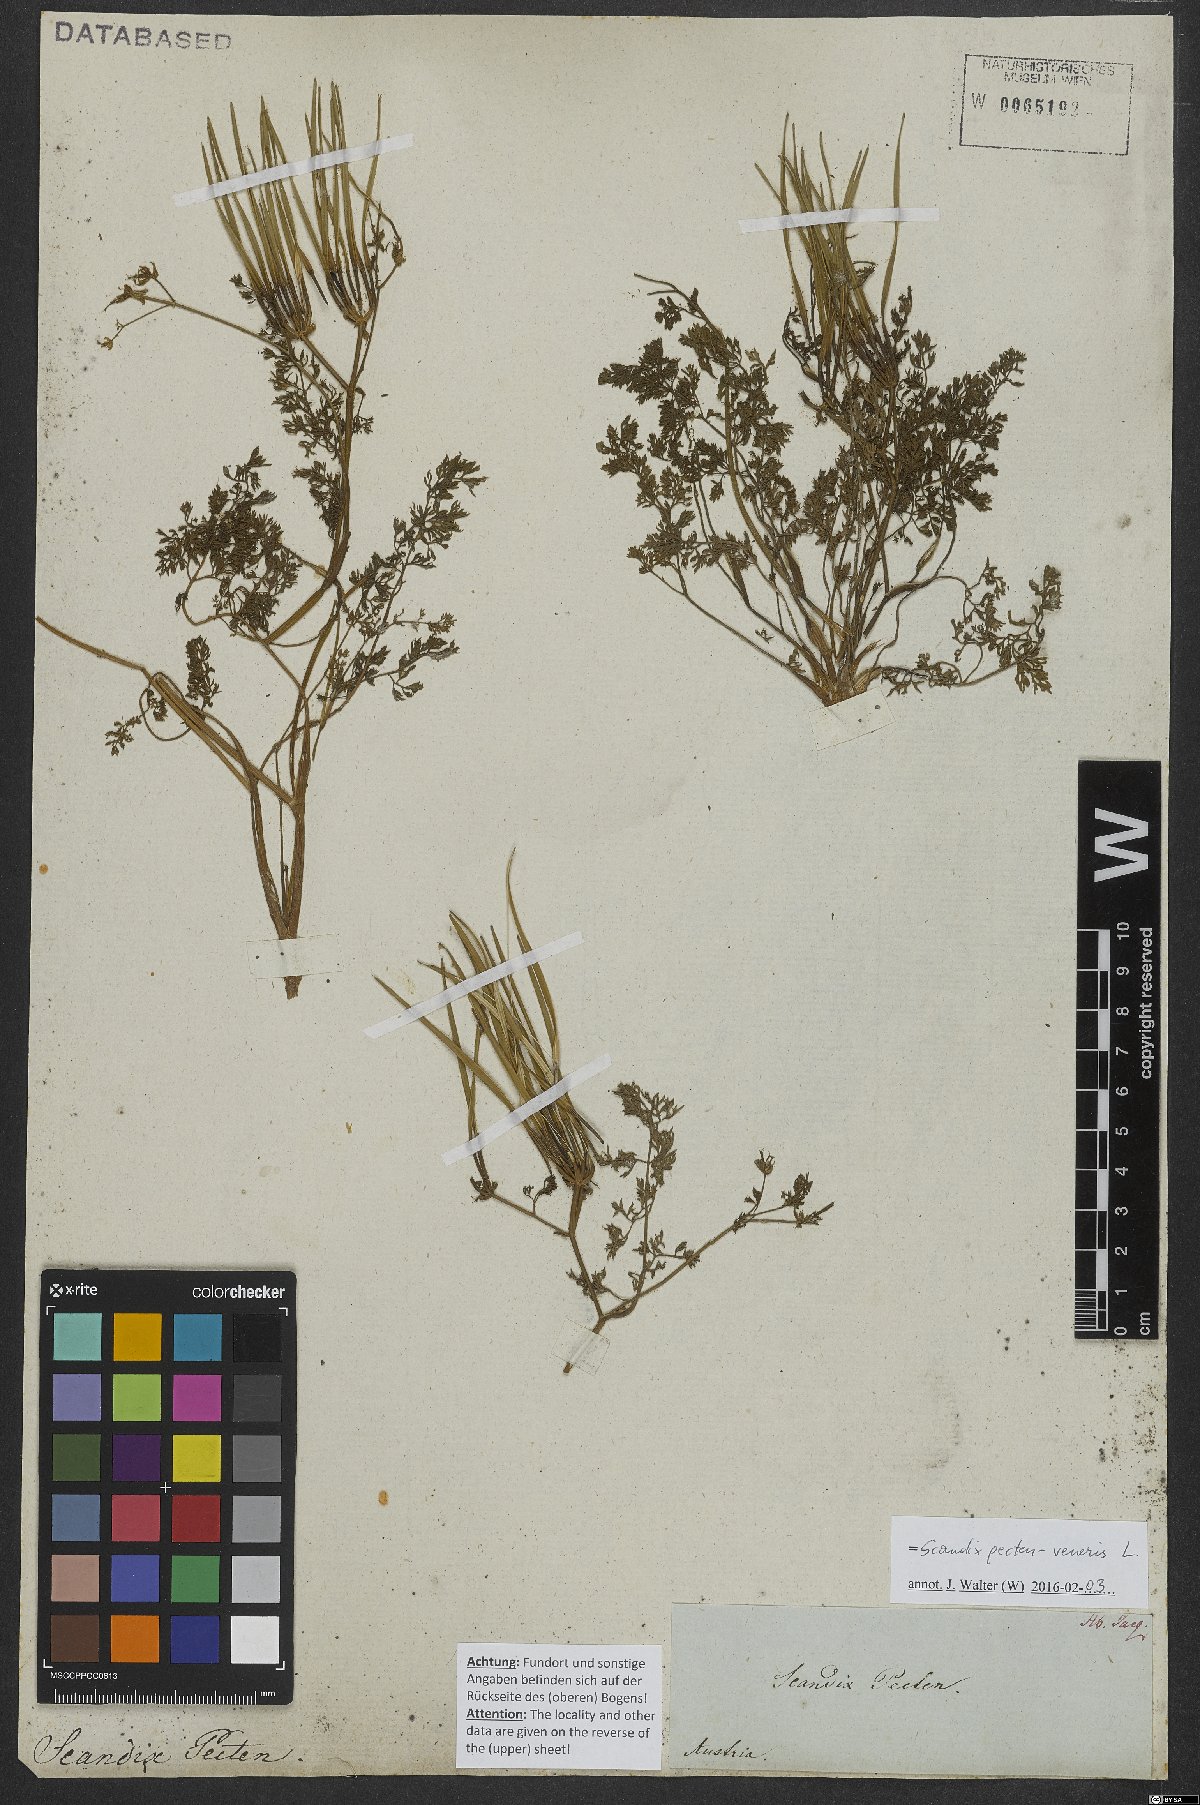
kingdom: Plantae
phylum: Tracheophyta
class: Magnoliopsida
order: Apiales
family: Apiaceae
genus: Scandix
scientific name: Scandix pecten-veneris
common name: Shepherd's-needle
